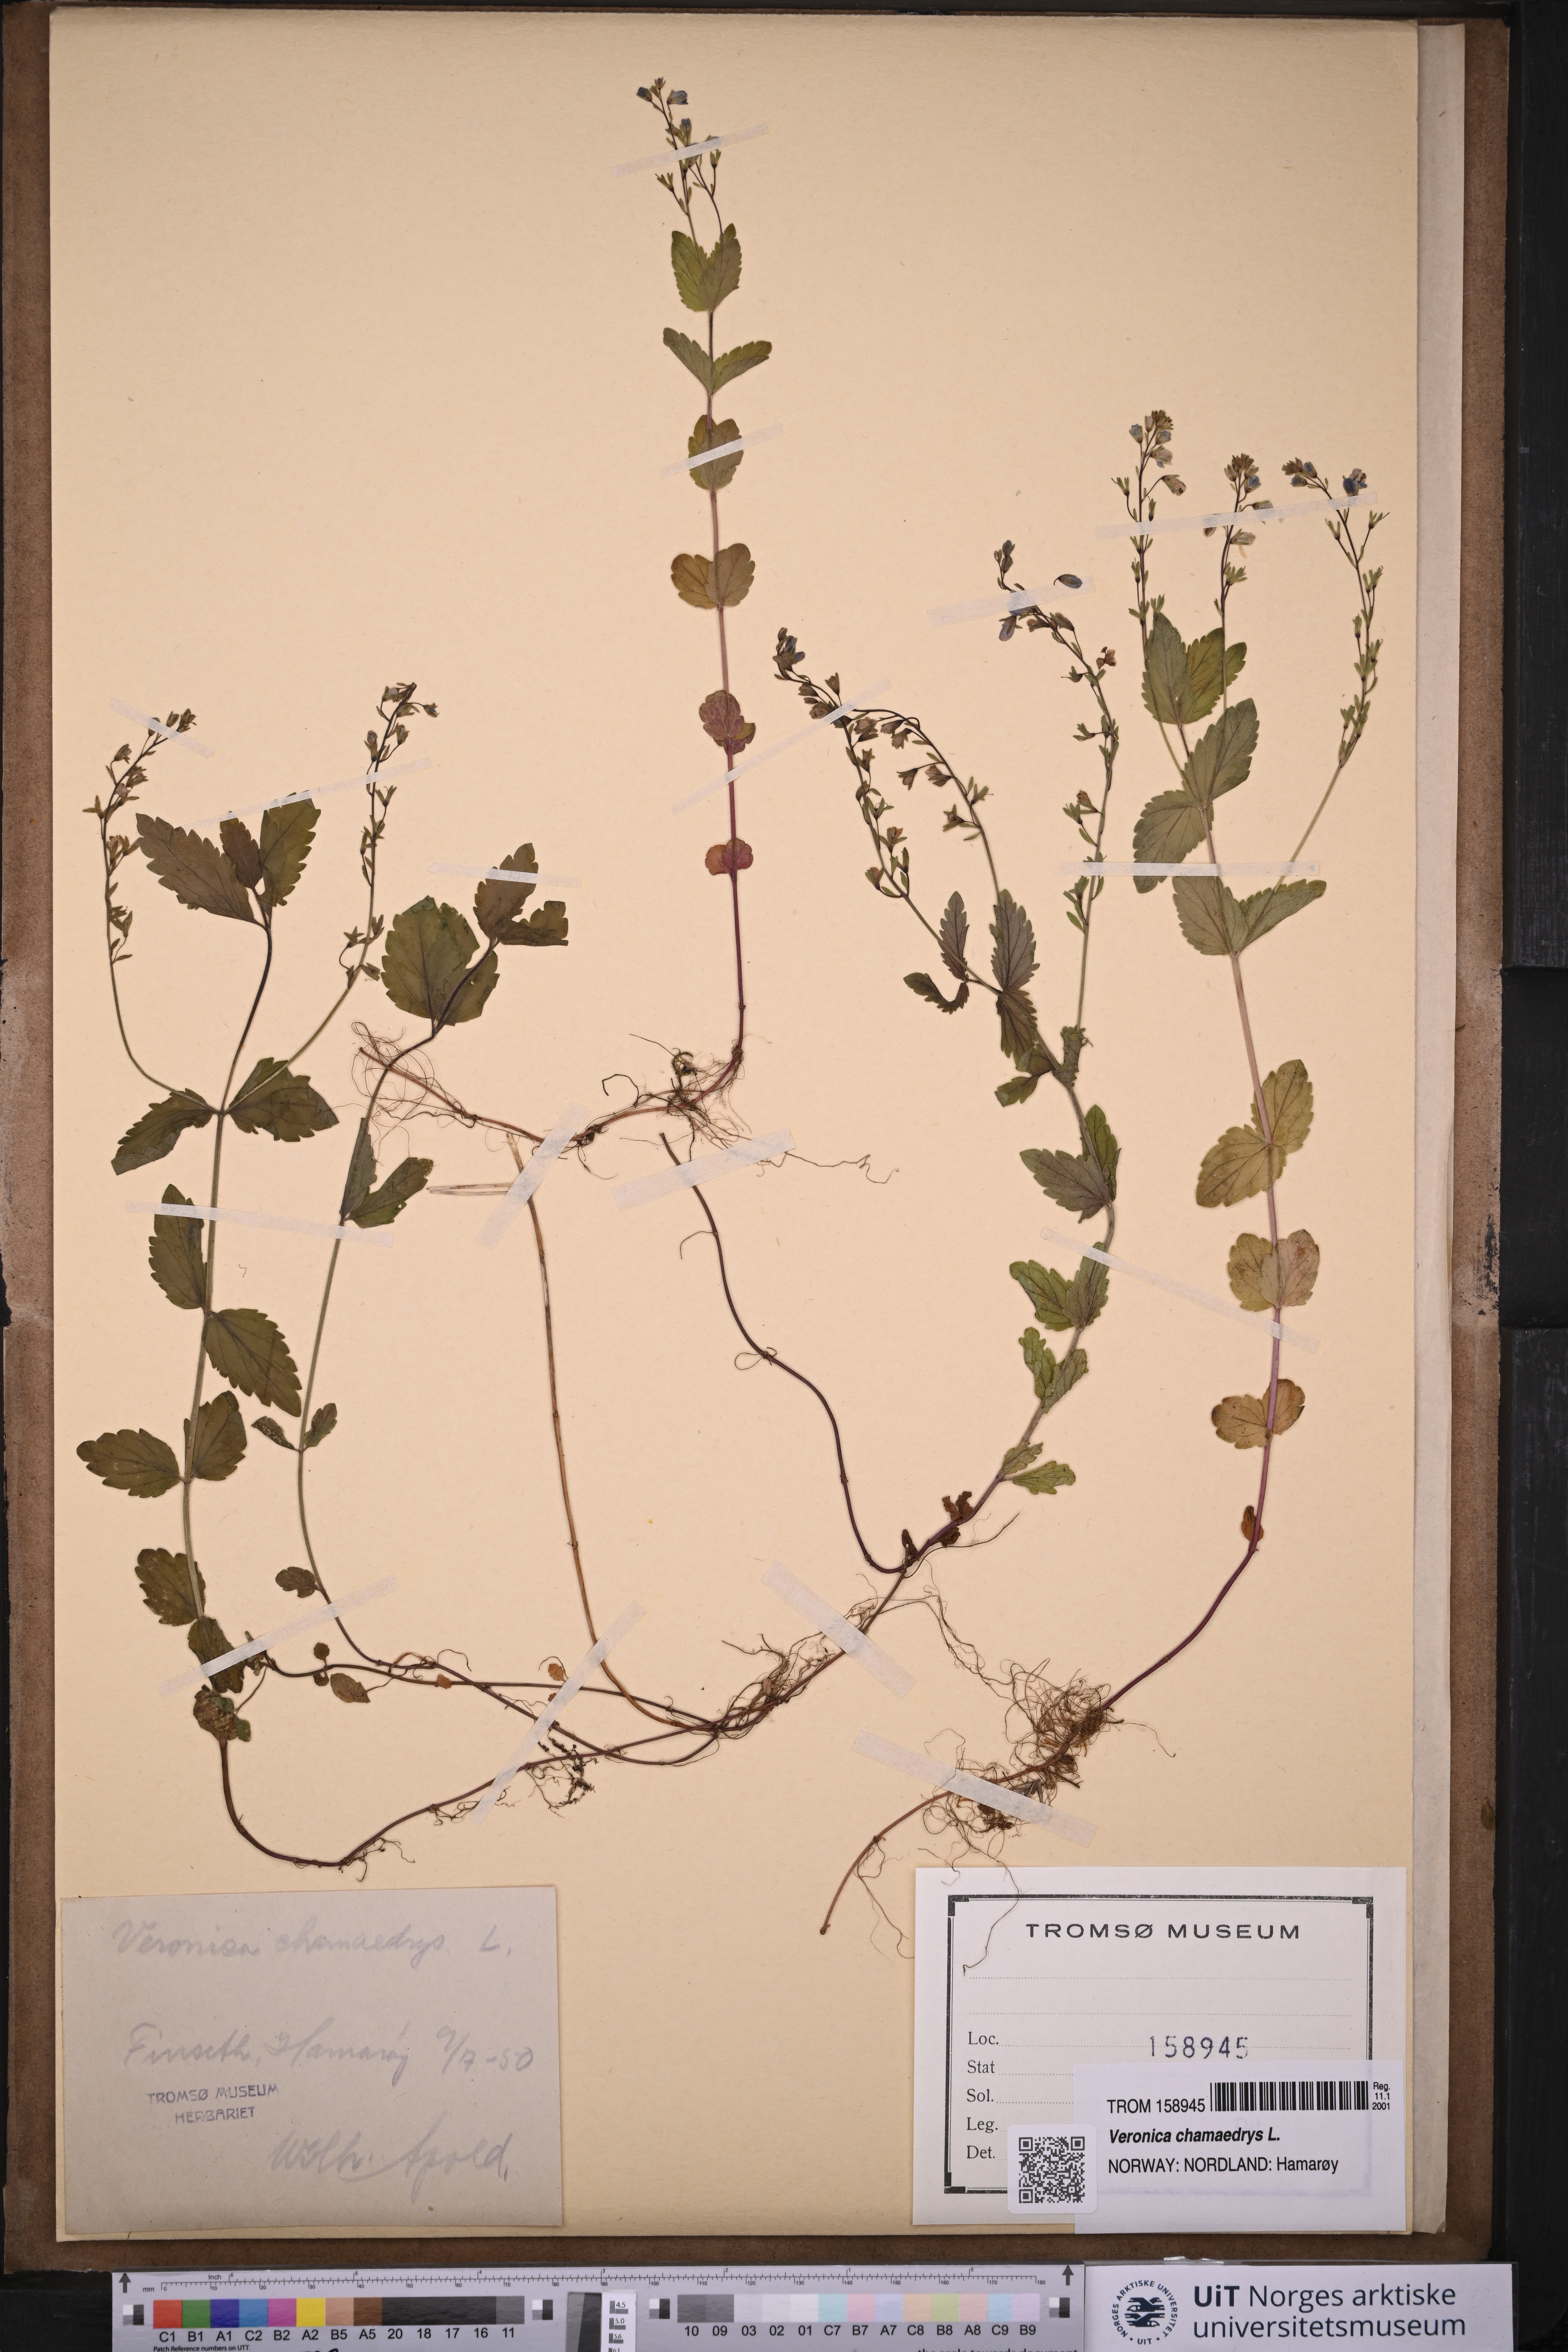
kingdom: Plantae
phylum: Tracheophyta
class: Magnoliopsida
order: Lamiales
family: Plantaginaceae
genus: Veronica
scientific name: Veronica chamaedrys
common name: Germander speedwell
